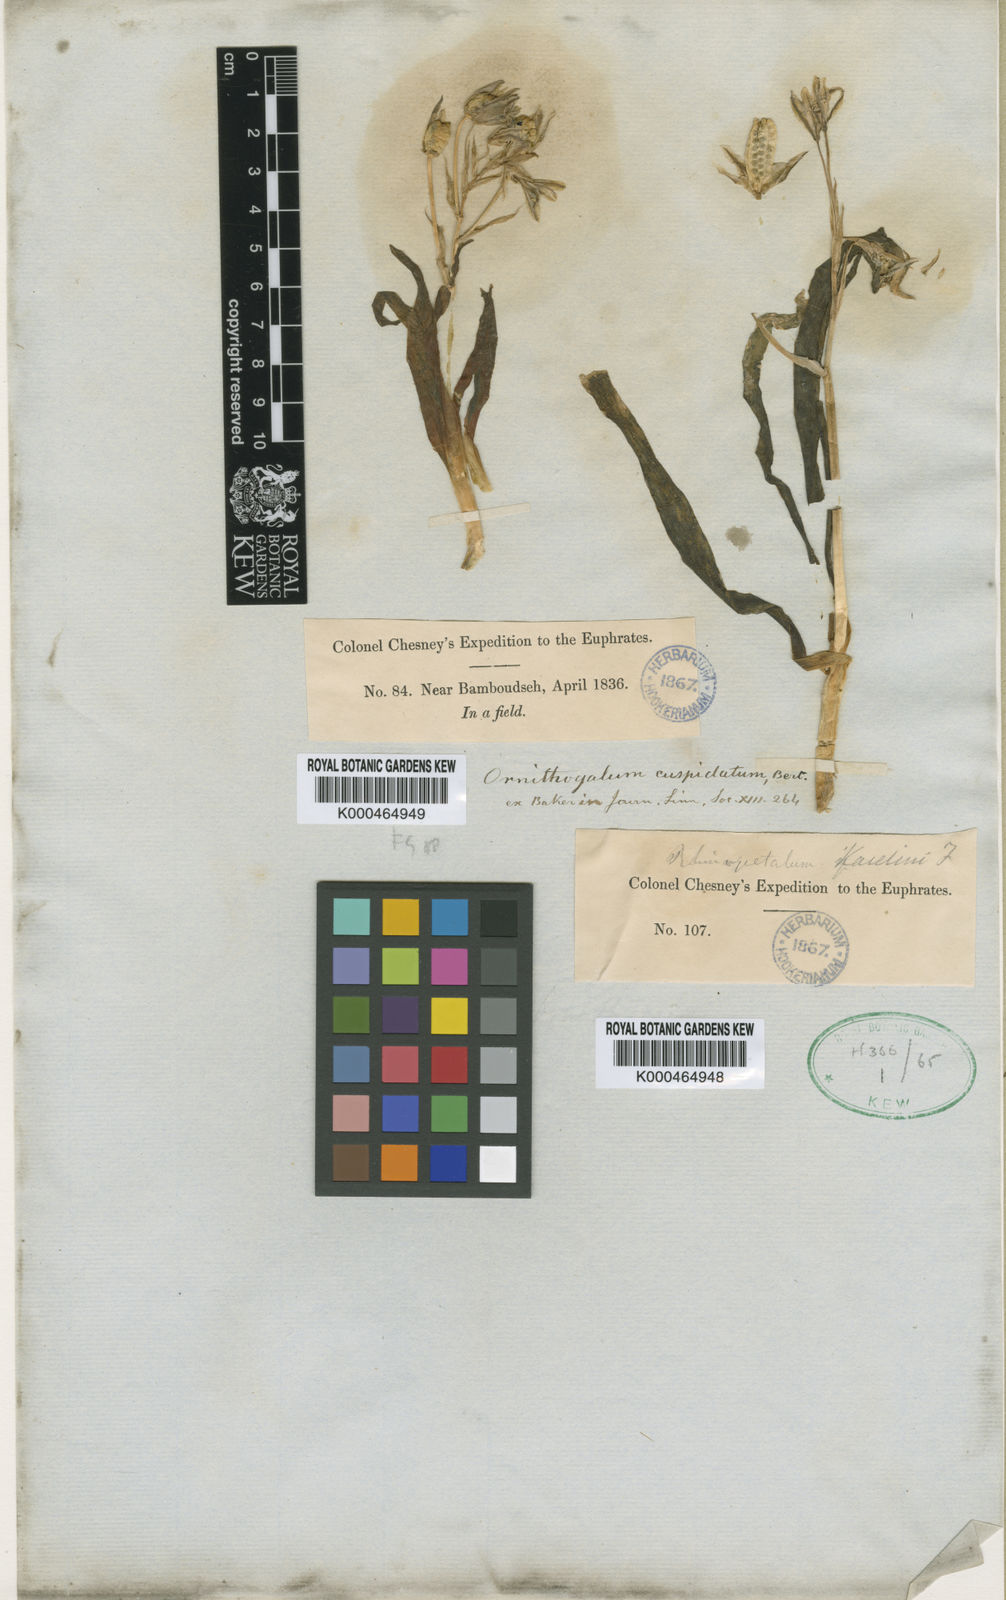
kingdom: Plantae
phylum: Tracheophyta
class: Liliopsida
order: Asparagales
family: Asparagaceae
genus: Ornithogalum
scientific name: Ornithogalum
